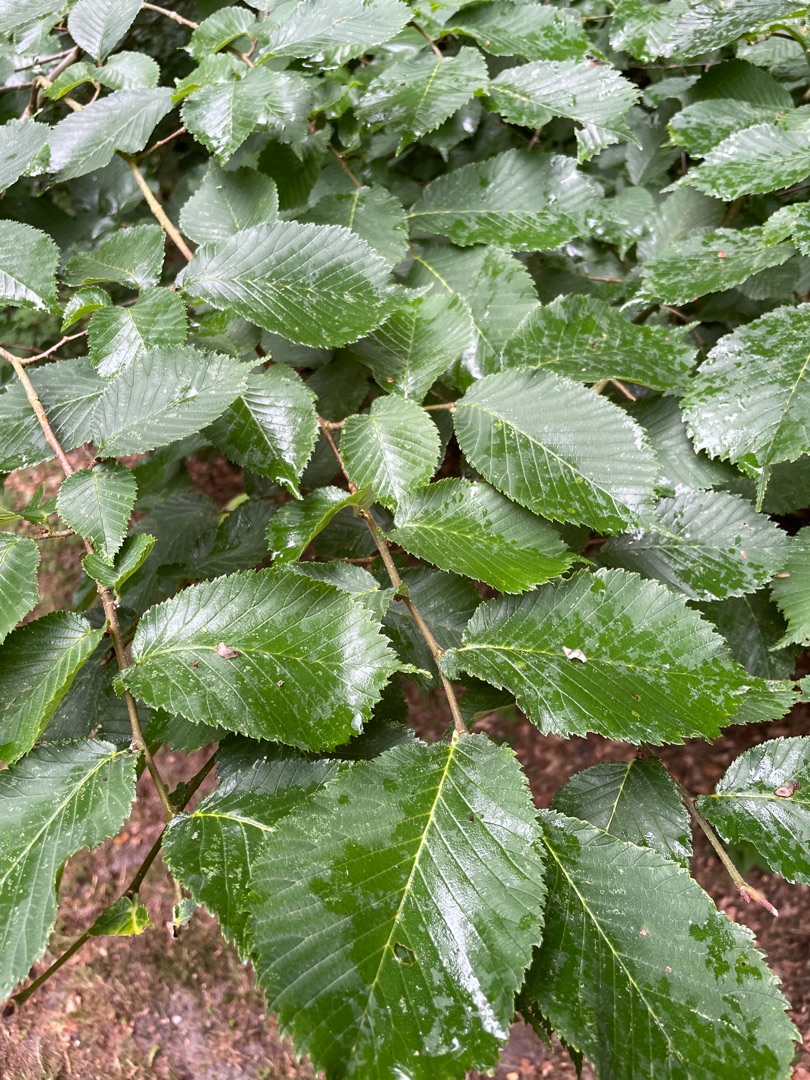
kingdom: Plantae
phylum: Tracheophyta
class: Magnoliopsida
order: Rosales
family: Ulmaceae
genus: Ulmus
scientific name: Ulmus glabra
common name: Skov-elm/storbladet elm
